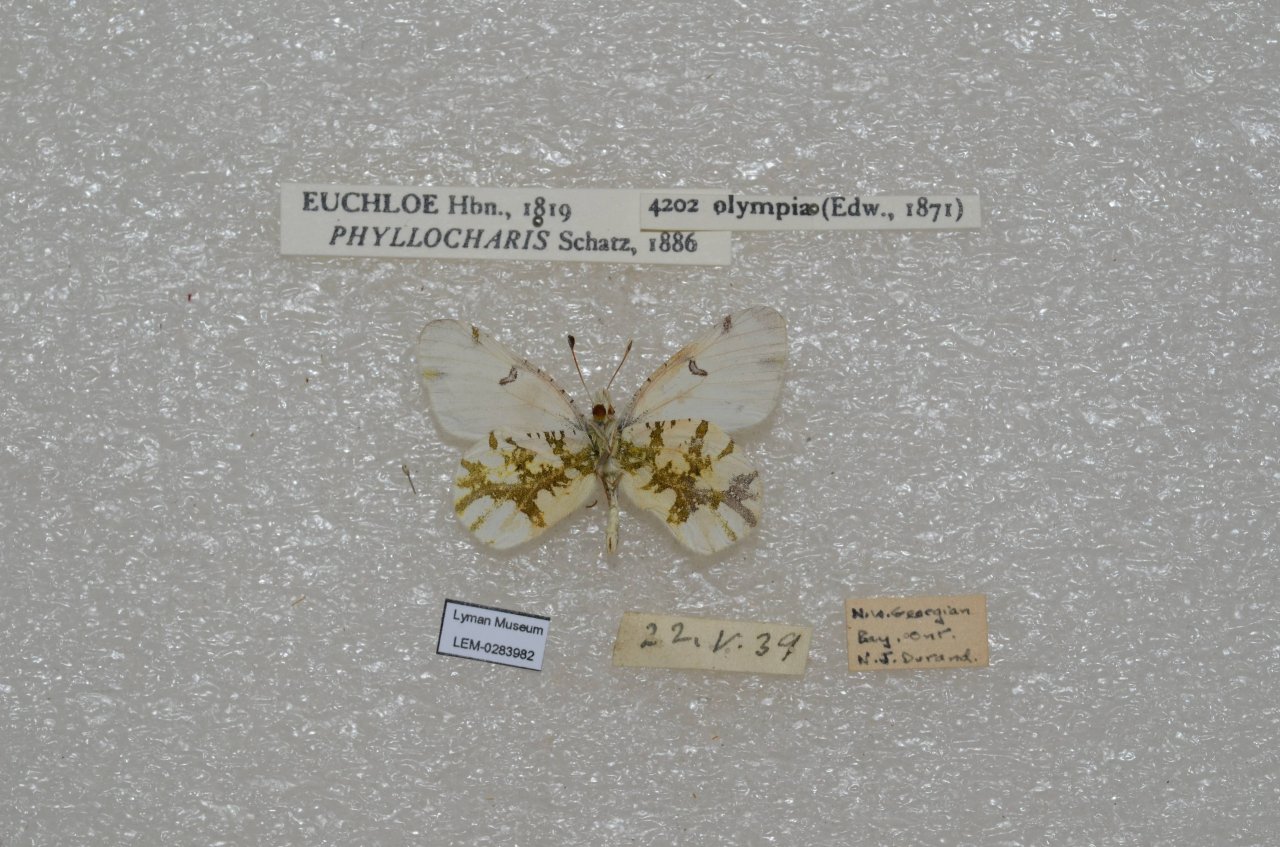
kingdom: Animalia
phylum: Arthropoda
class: Insecta
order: Lepidoptera
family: Pieridae
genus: Euchloe
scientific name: Euchloe olympia
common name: Olympia Marble
